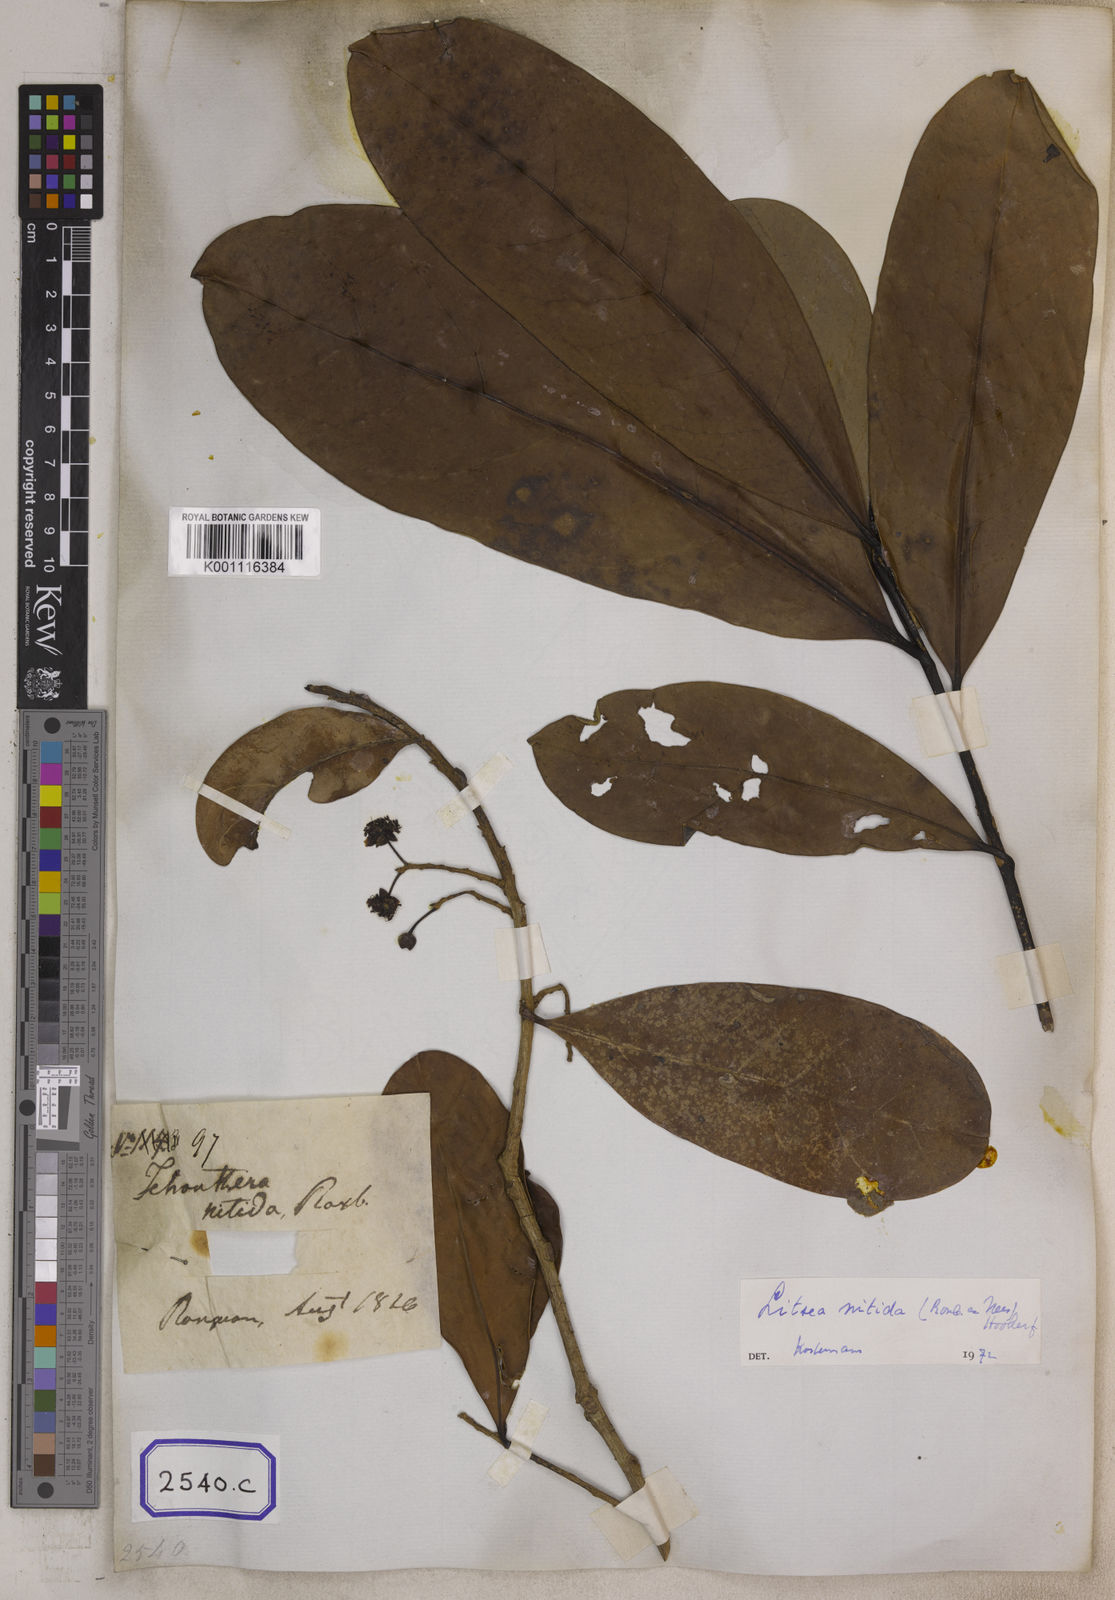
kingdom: Plantae
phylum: Tracheophyta
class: Magnoliopsida
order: Laurales
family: Lauraceae
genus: Litsea
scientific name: Litsea
